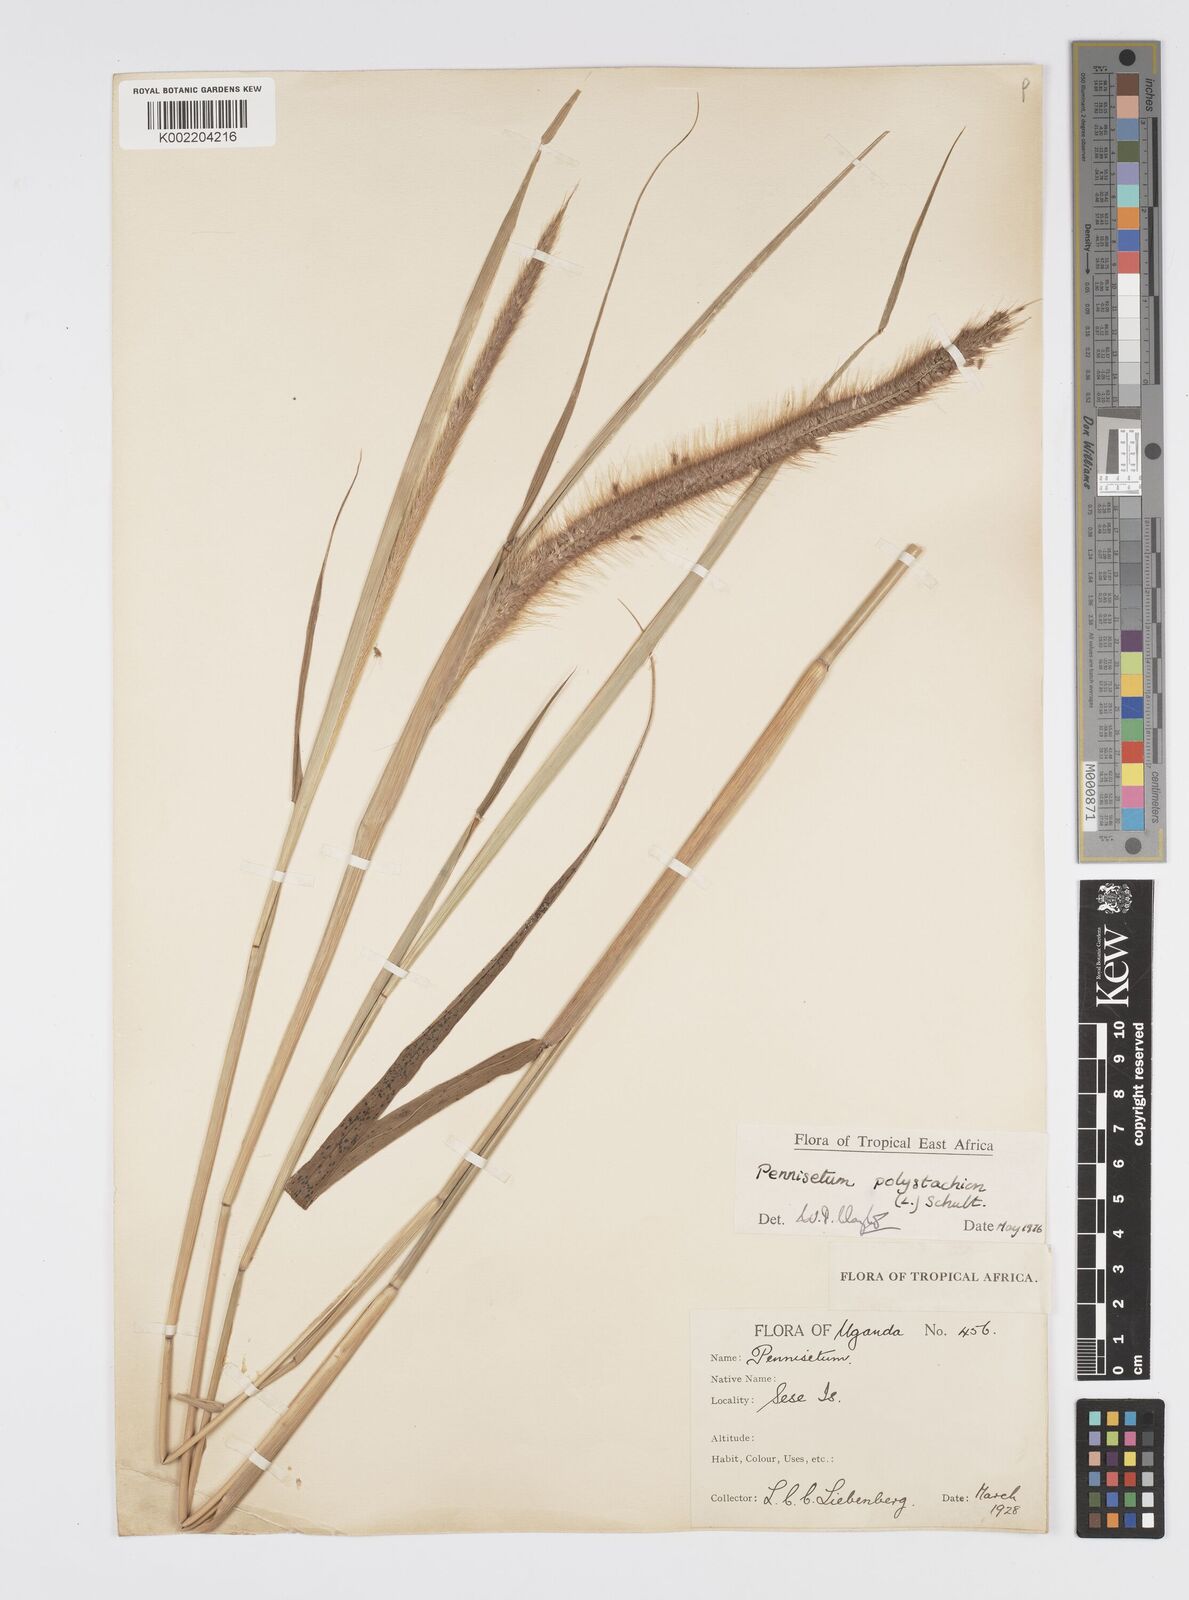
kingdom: Plantae
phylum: Tracheophyta
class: Liliopsida
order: Poales
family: Poaceae
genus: Setaria
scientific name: Setaria parviflora
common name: Knotroot bristle-grass
